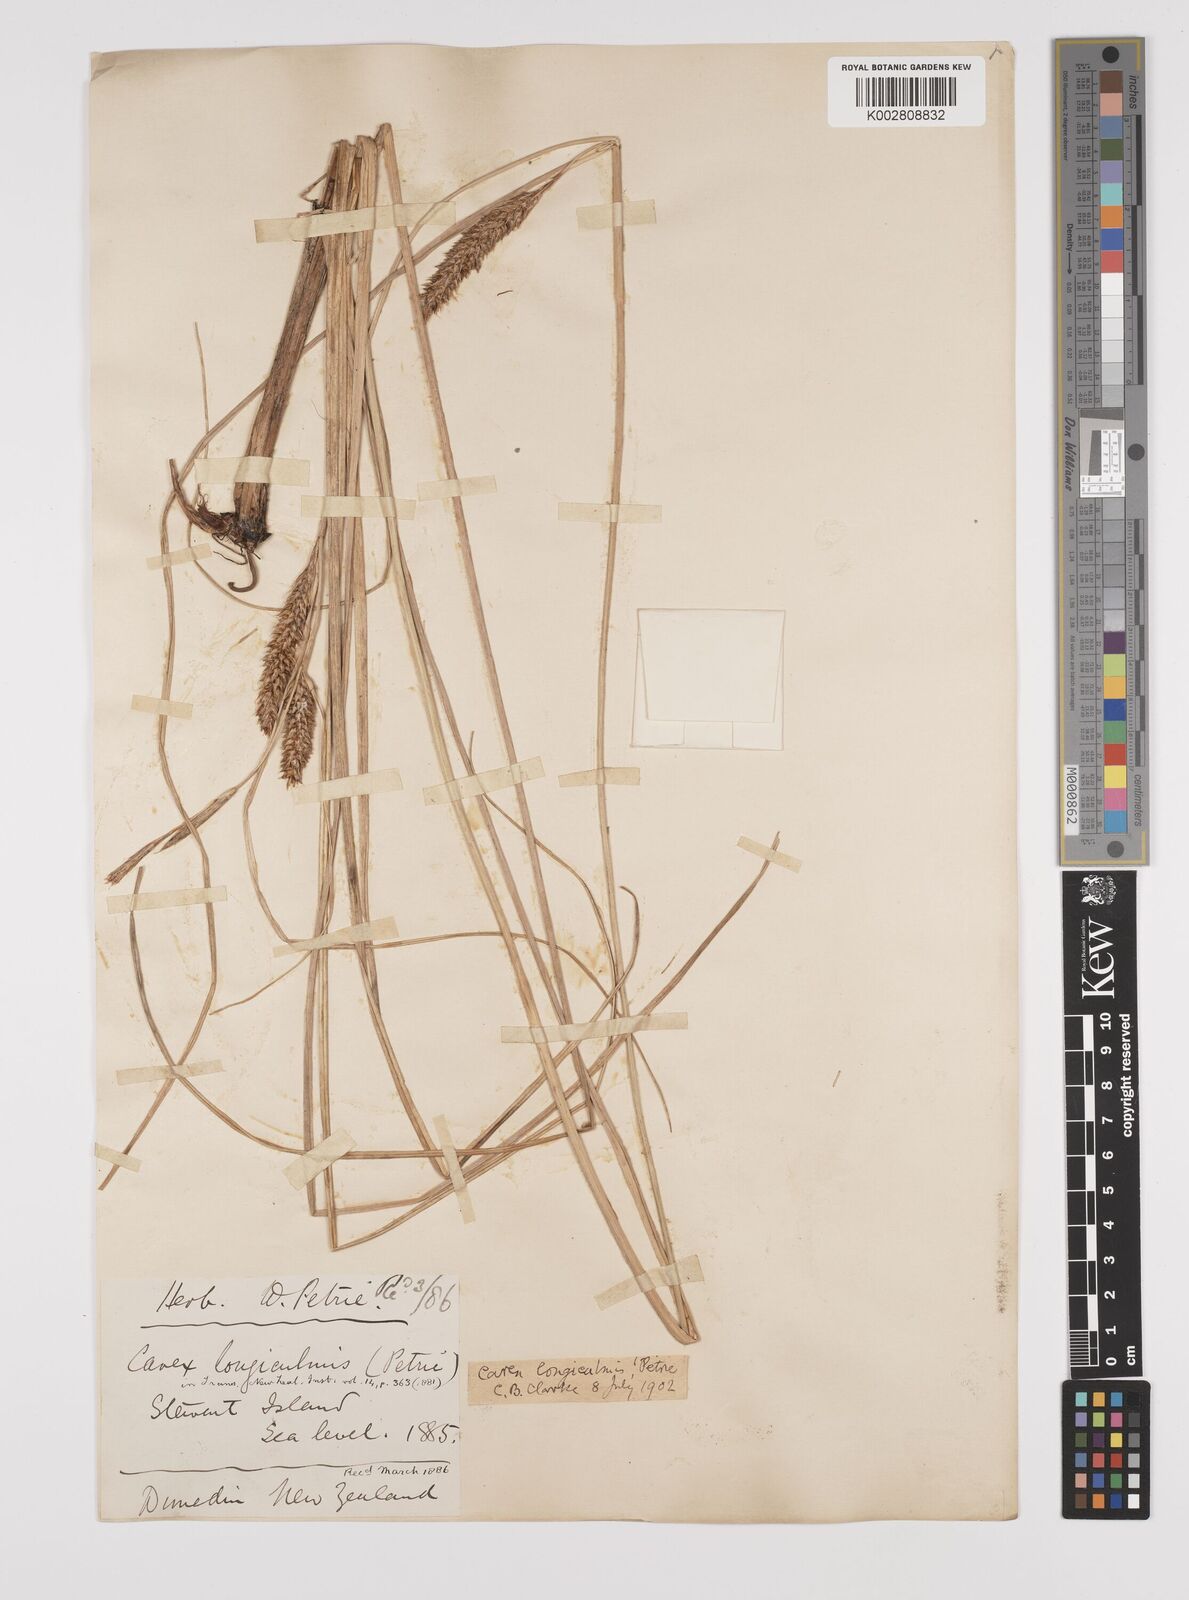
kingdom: Plantae
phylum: Tracheophyta
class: Liliopsida
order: Poales
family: Cyperaceae
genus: Carex
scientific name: Carex longiculmis
